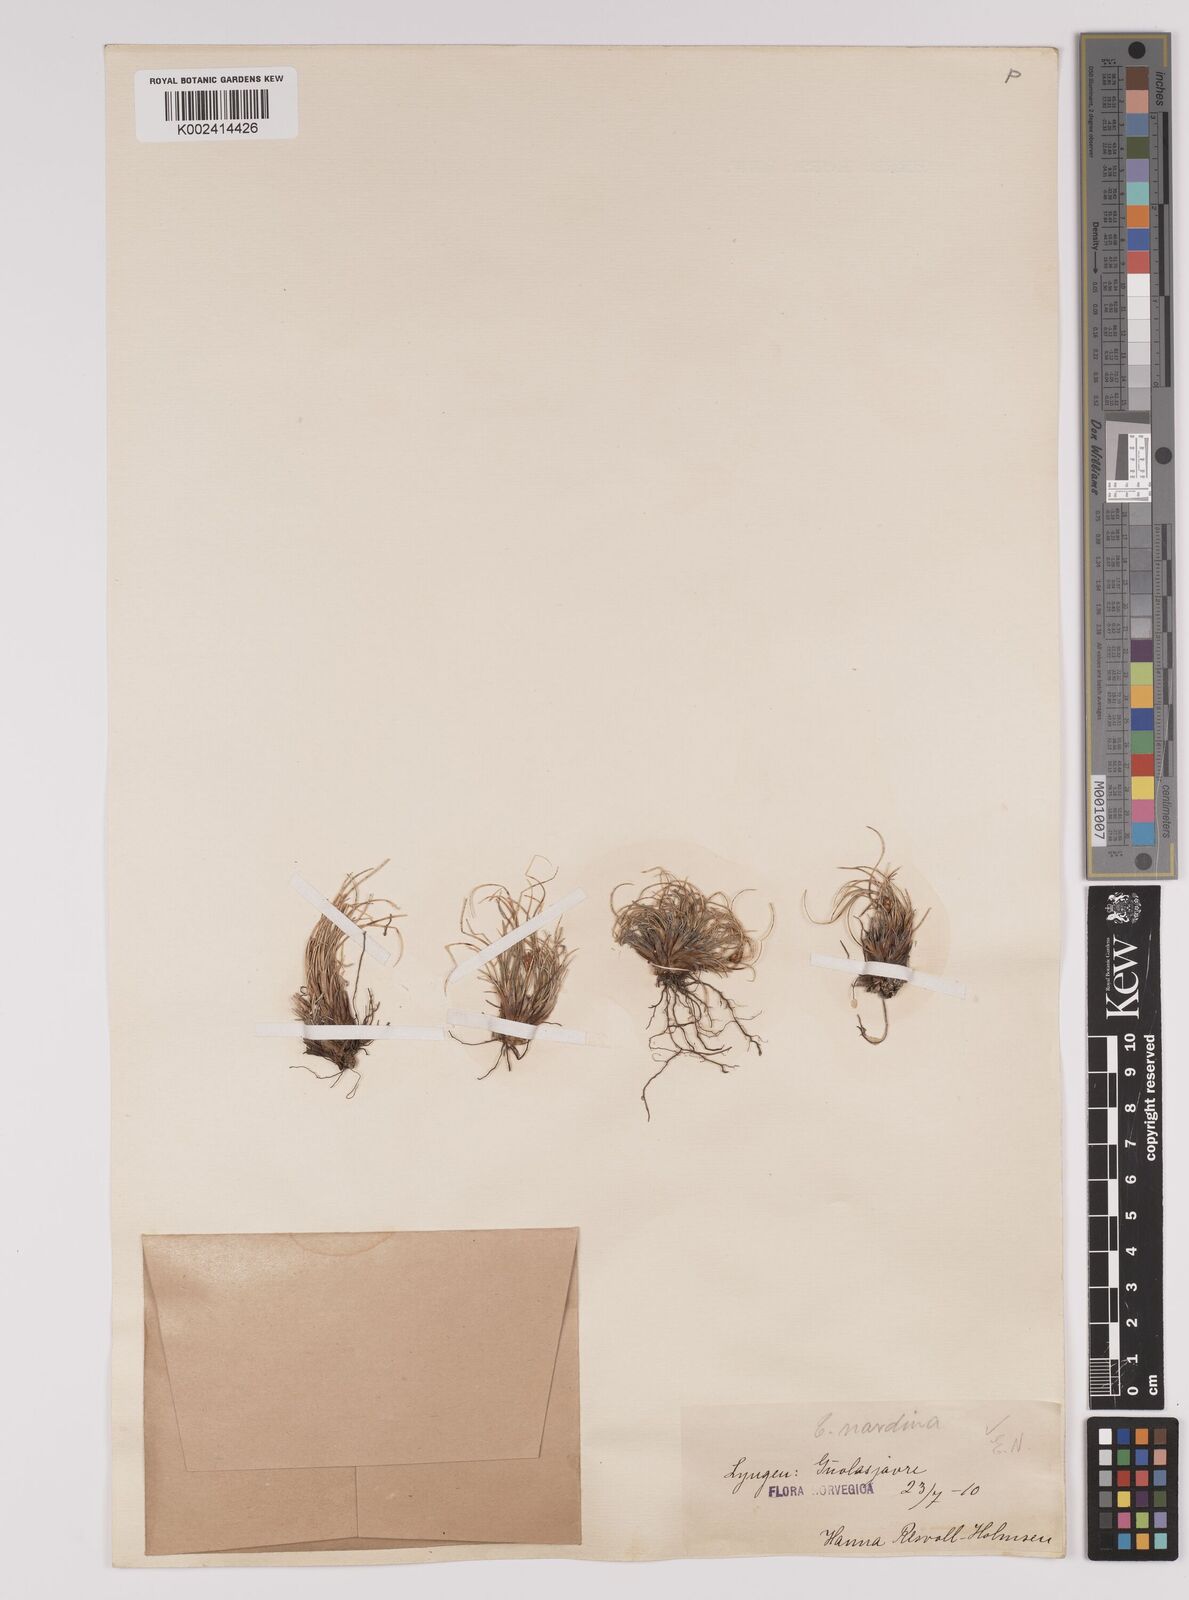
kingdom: Plantae
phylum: Tracheophyta
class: Liliopsida
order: Poales
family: Cyperaceae
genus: Carex
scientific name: Carex nardina
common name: Nard sedge
